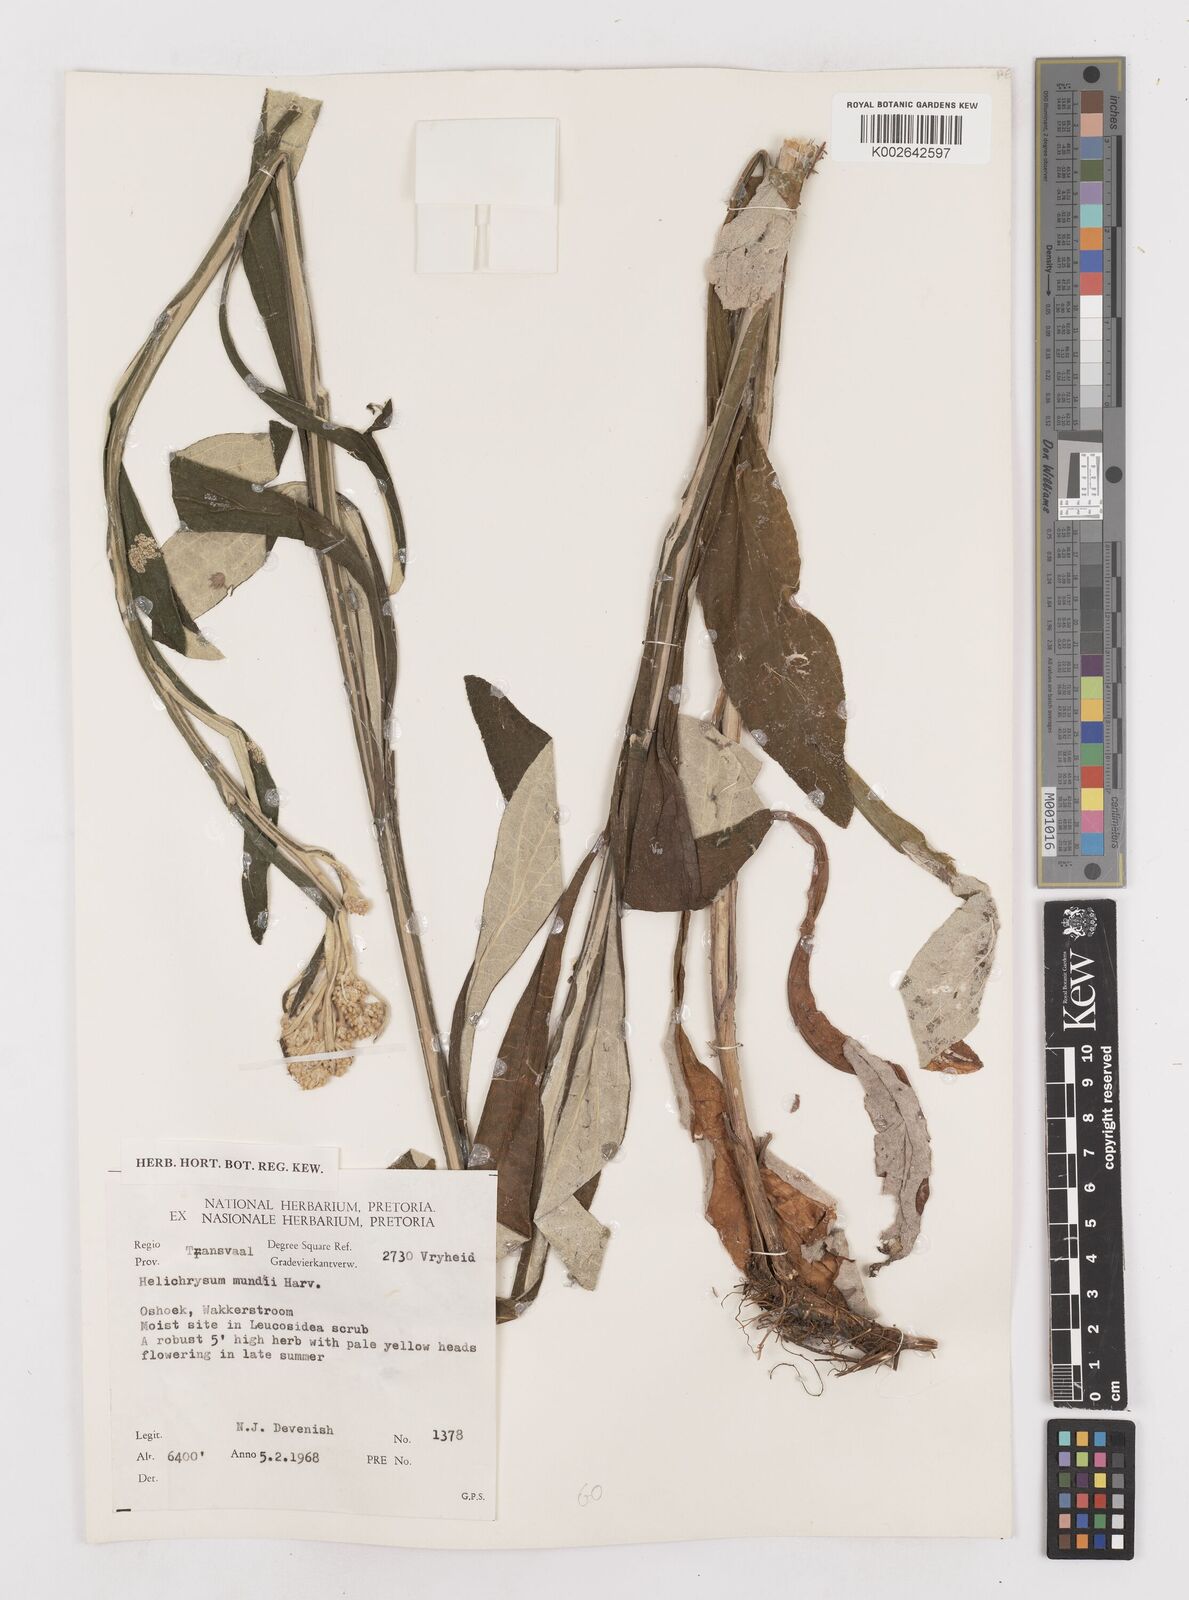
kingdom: Plantae
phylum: Tracheophyta
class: Magnoliopsida
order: Asterales
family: Asteraceae
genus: Helichrysum
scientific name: Helichrysum mundii
